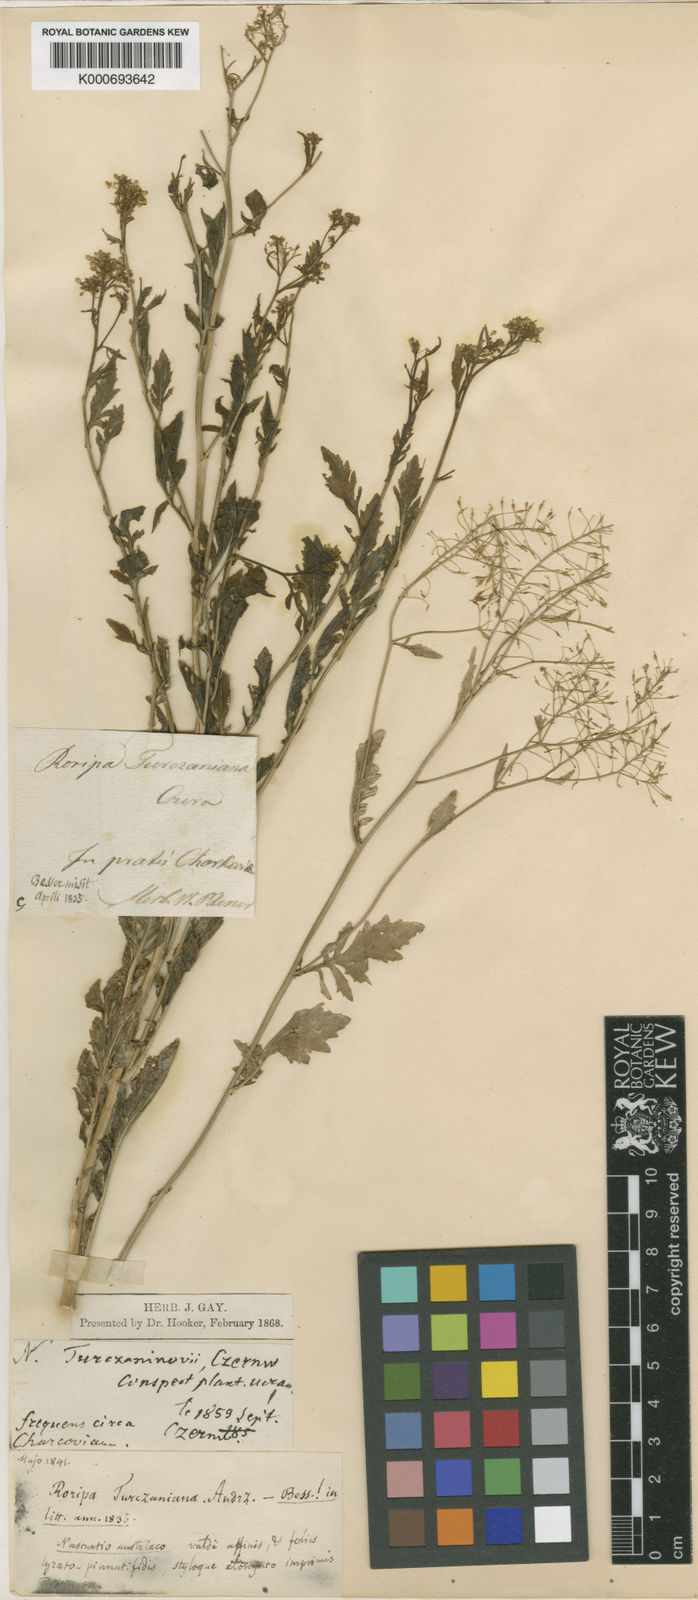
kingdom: Plantae
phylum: Tracheophyta
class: Magnoliopsida
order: Brassicales
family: Brassicaceae
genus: Rorippa
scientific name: Rorippa
